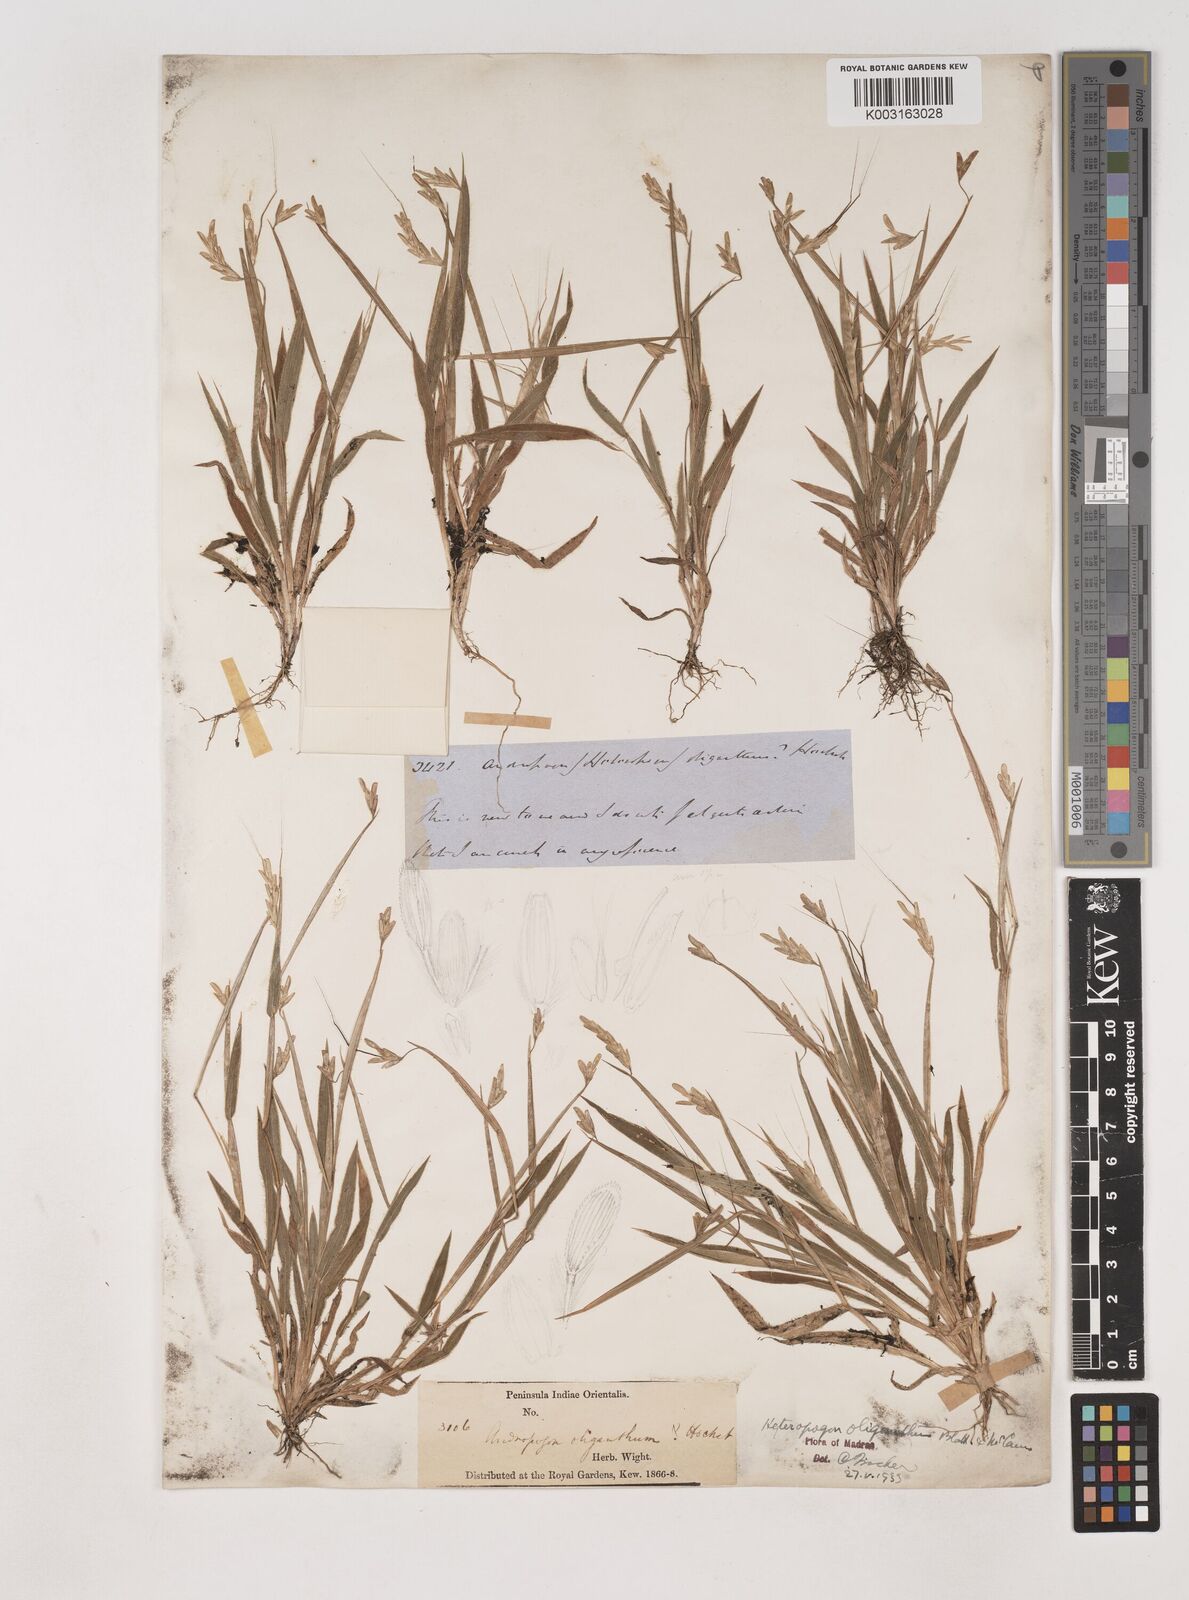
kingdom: Plantae
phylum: Tracheophyta
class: Liliopsida
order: Poales
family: Poaceae
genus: Euclasta
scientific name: Euclasta oligantha
